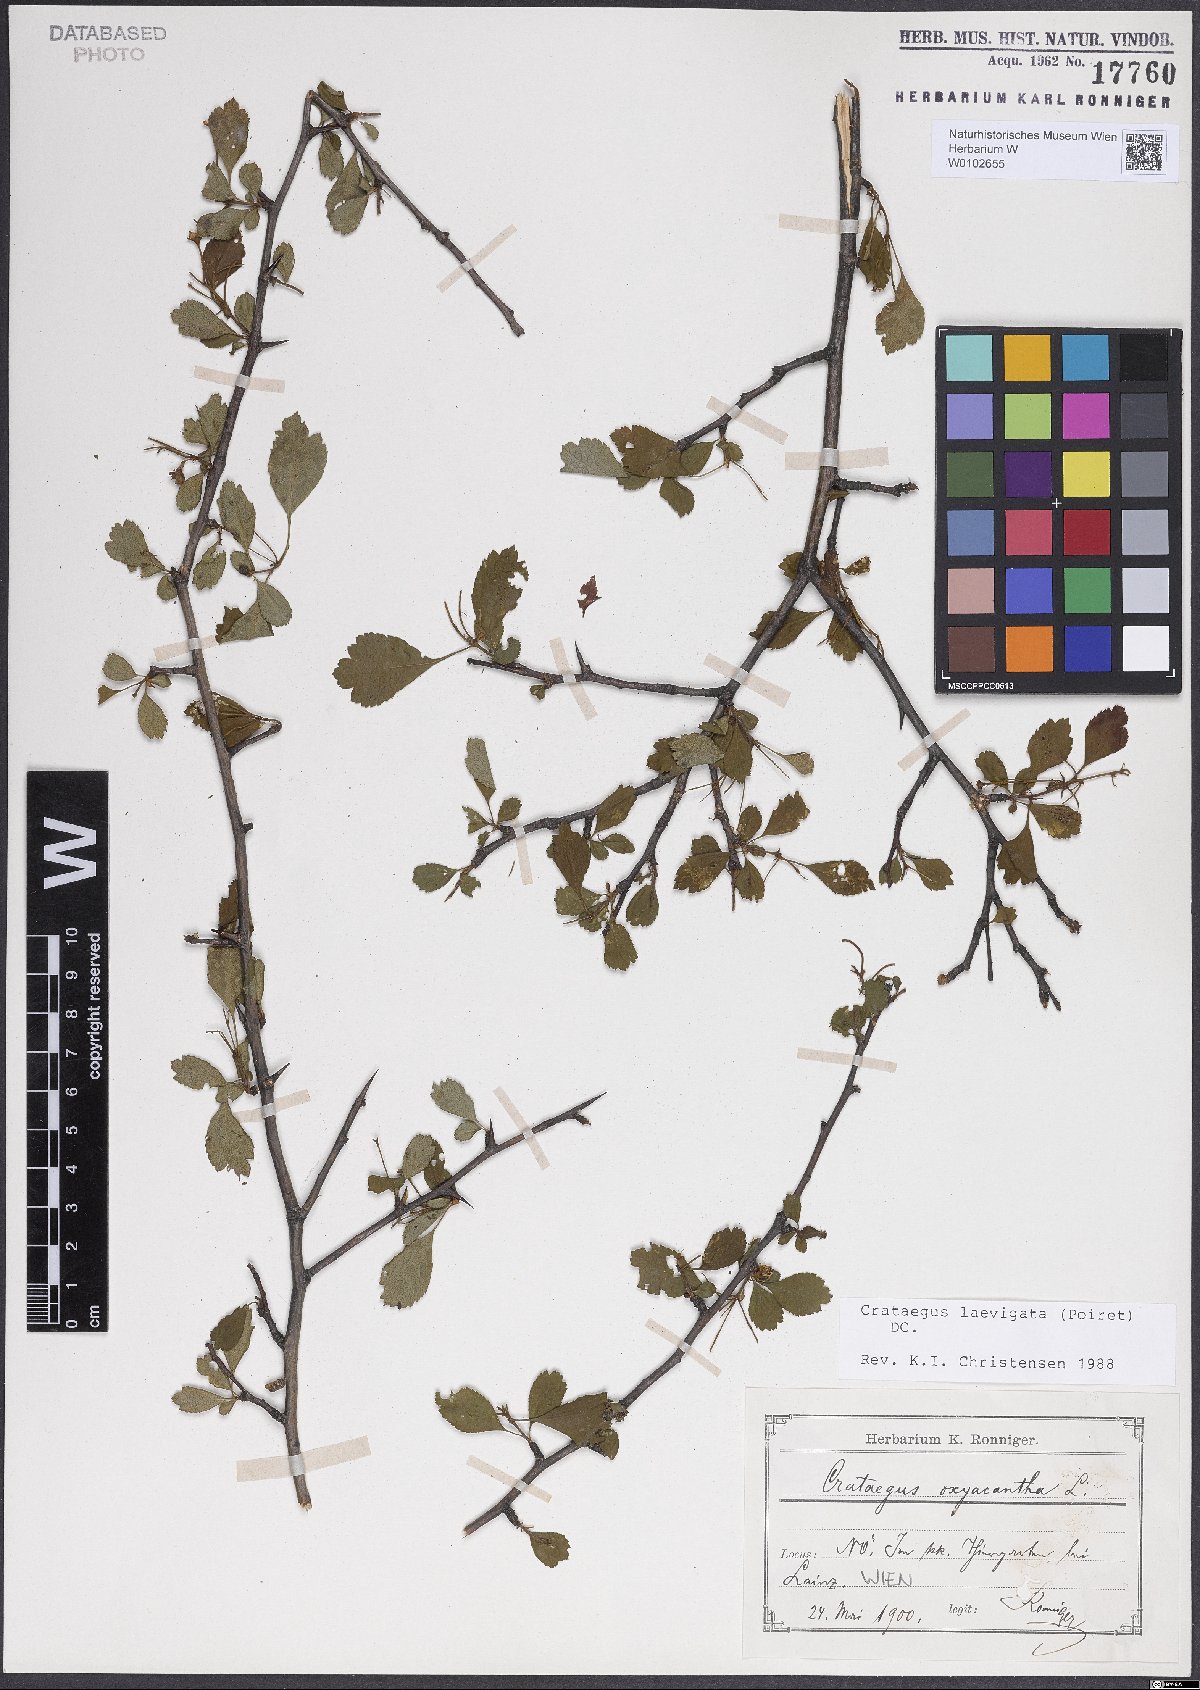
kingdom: Plantae
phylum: Tracheophyta
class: Magnoliopsida
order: Rosales
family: Rosaceae
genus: Crataegus
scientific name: Crataegus laevigata
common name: Midland hawthorn
